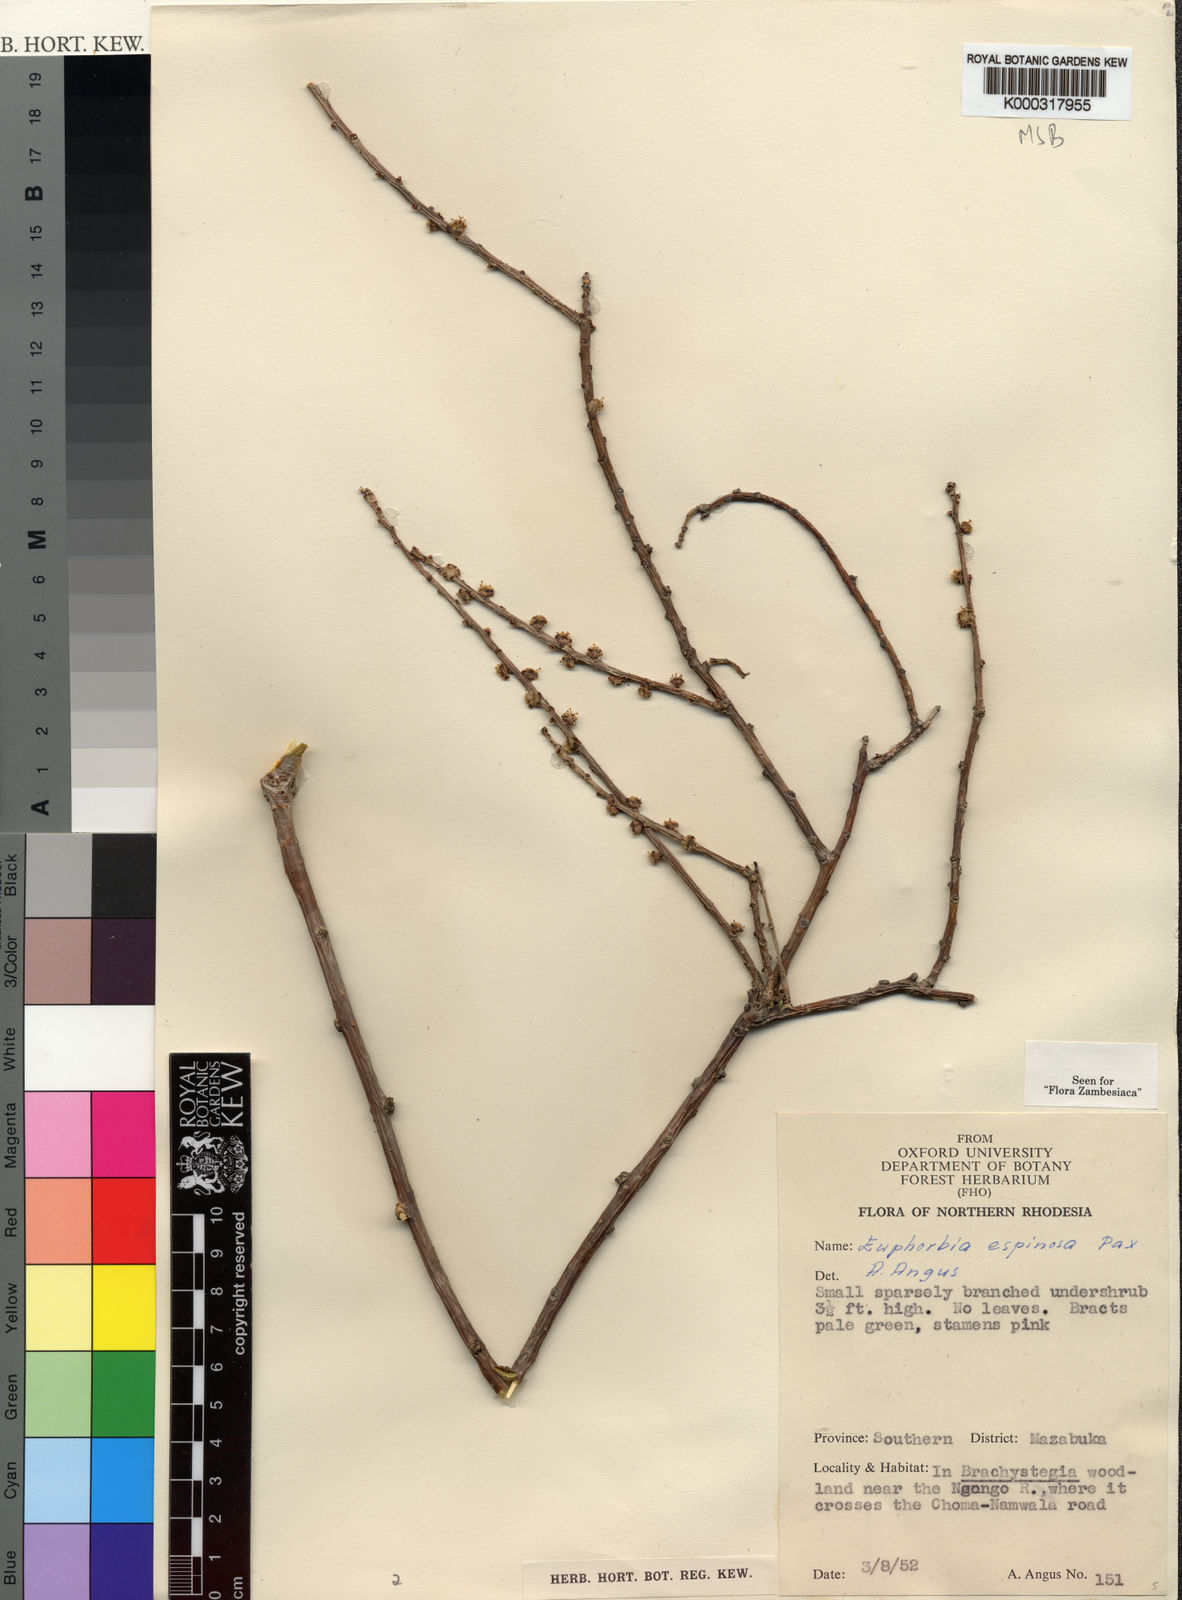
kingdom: Plantae
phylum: Tracheophyta
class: Magnoliopsida
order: Malpighiales
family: Euphorbiaceae
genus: Euphorbia
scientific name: Euphorbia espinosa
